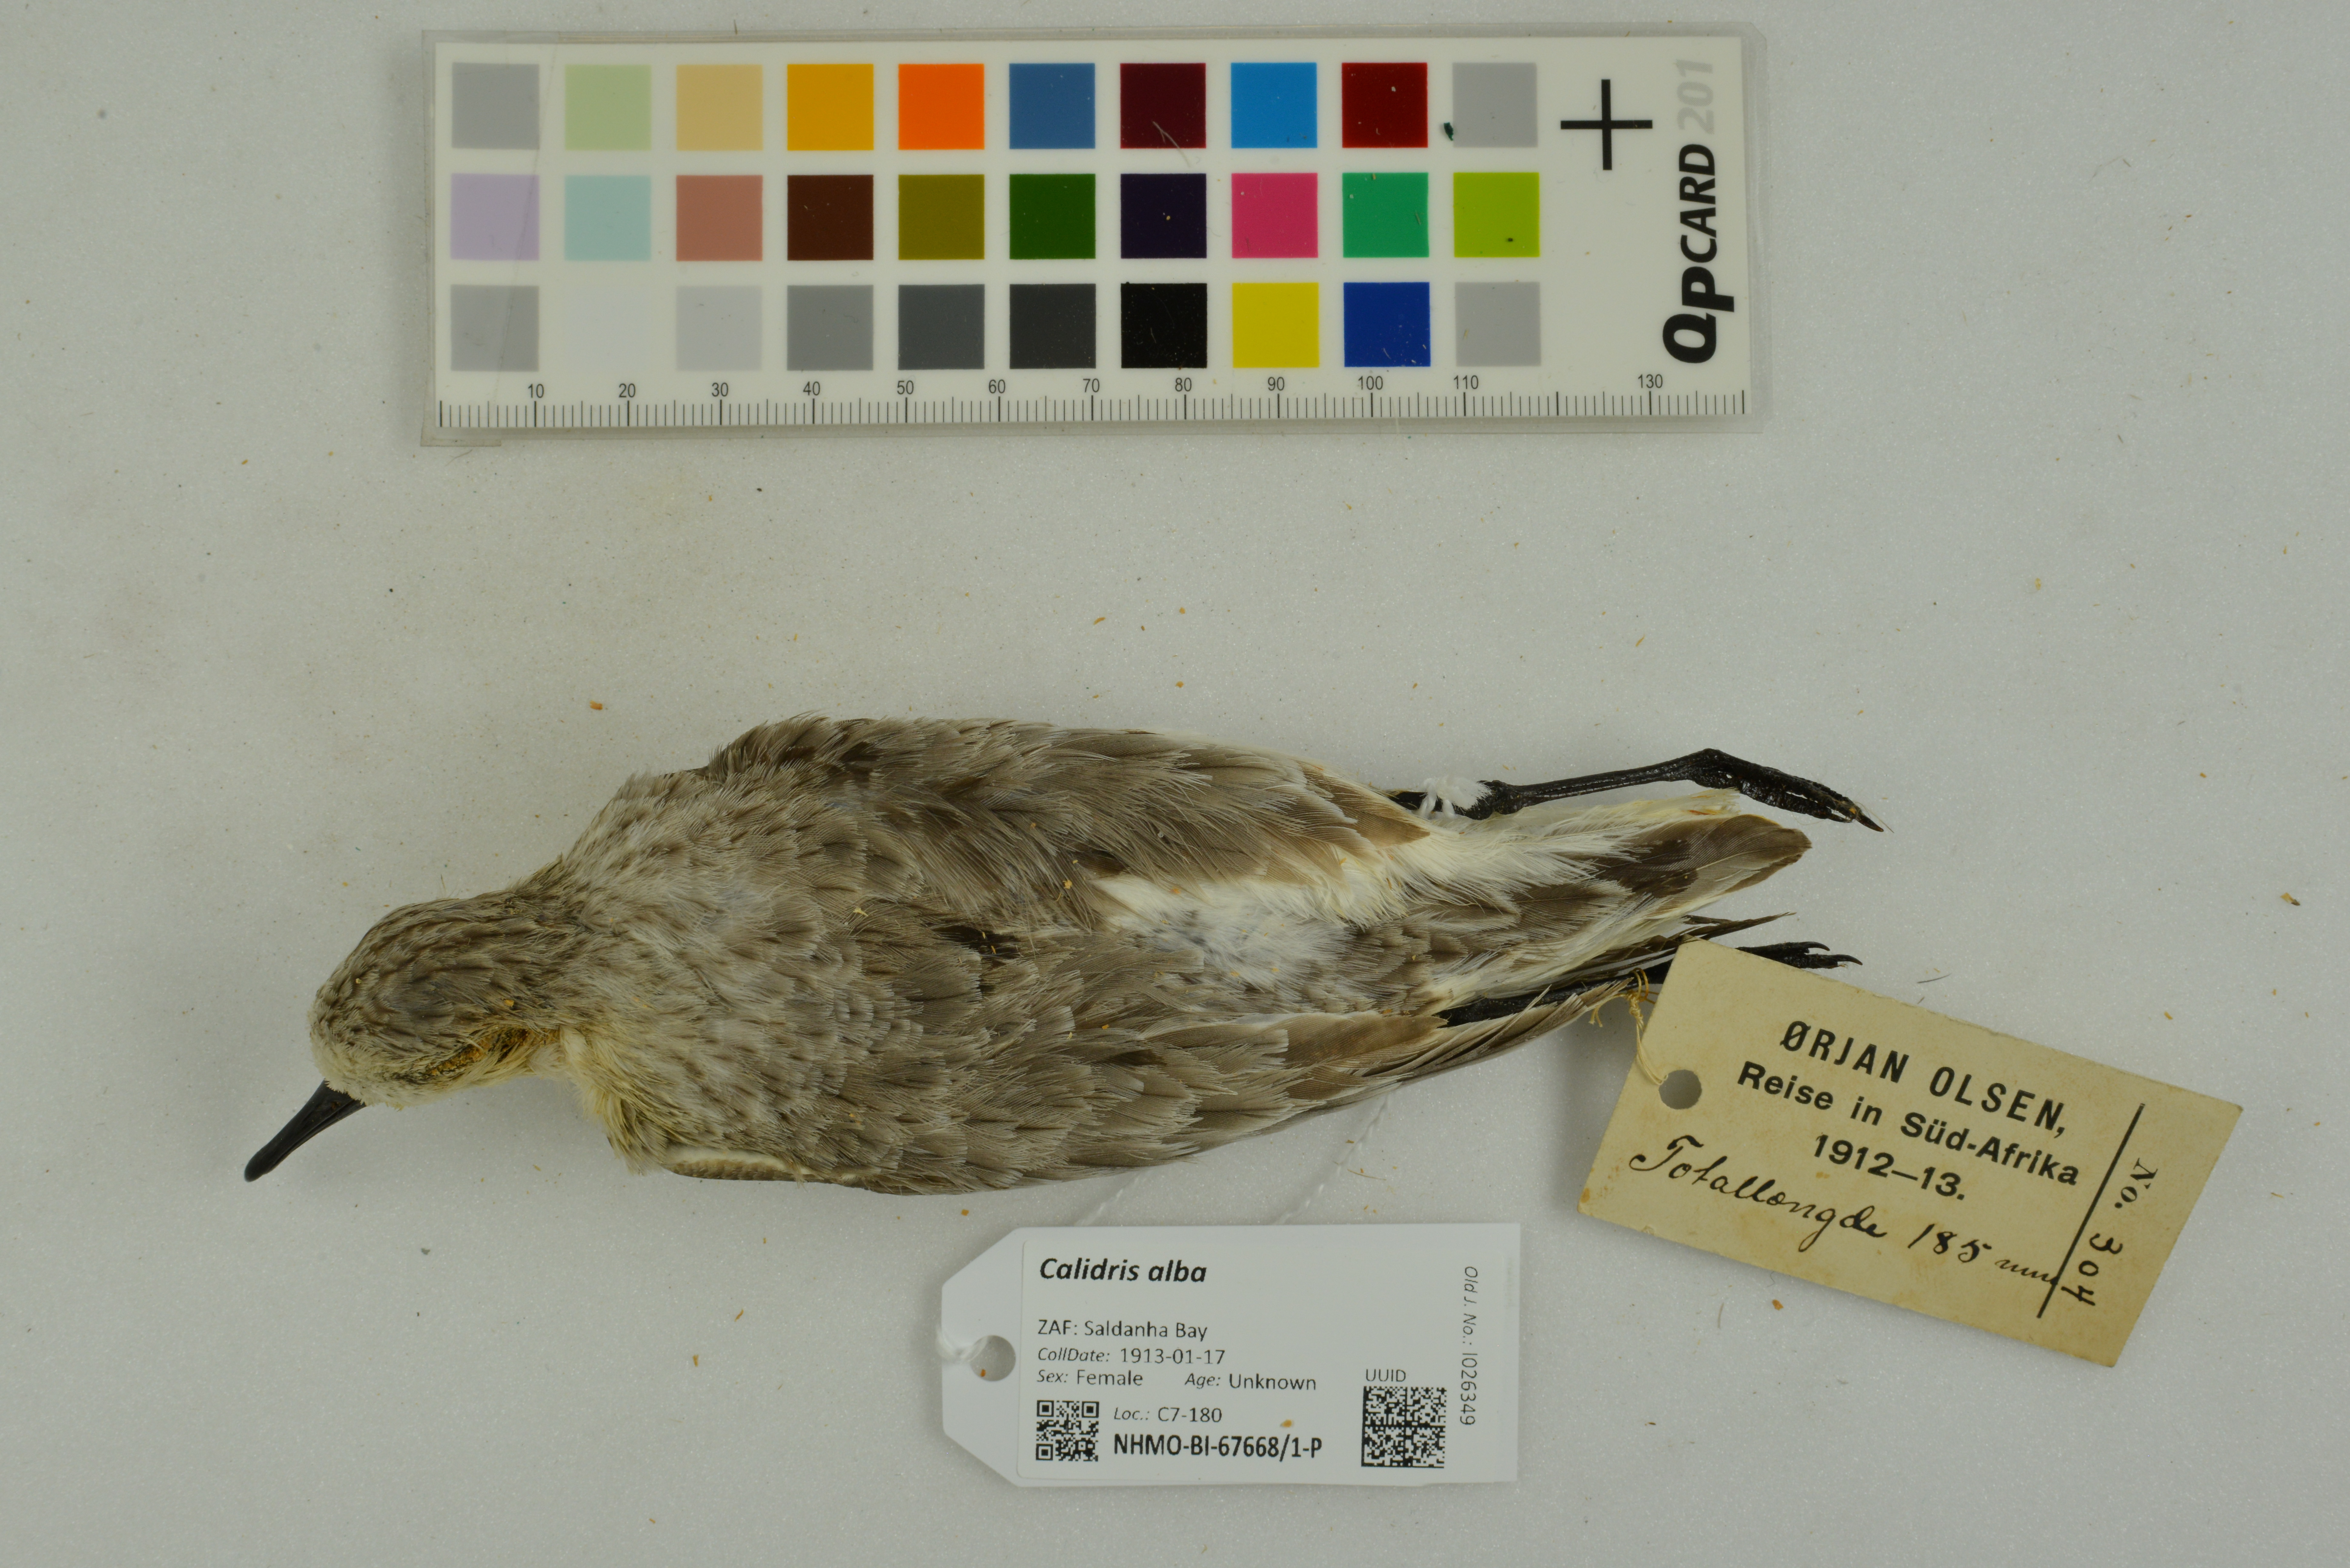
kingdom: Animalia
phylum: Chordata
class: Aves
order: Charadriiformes
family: Scolopacidae
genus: Calidris
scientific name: Calidris alba
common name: Sanderling
